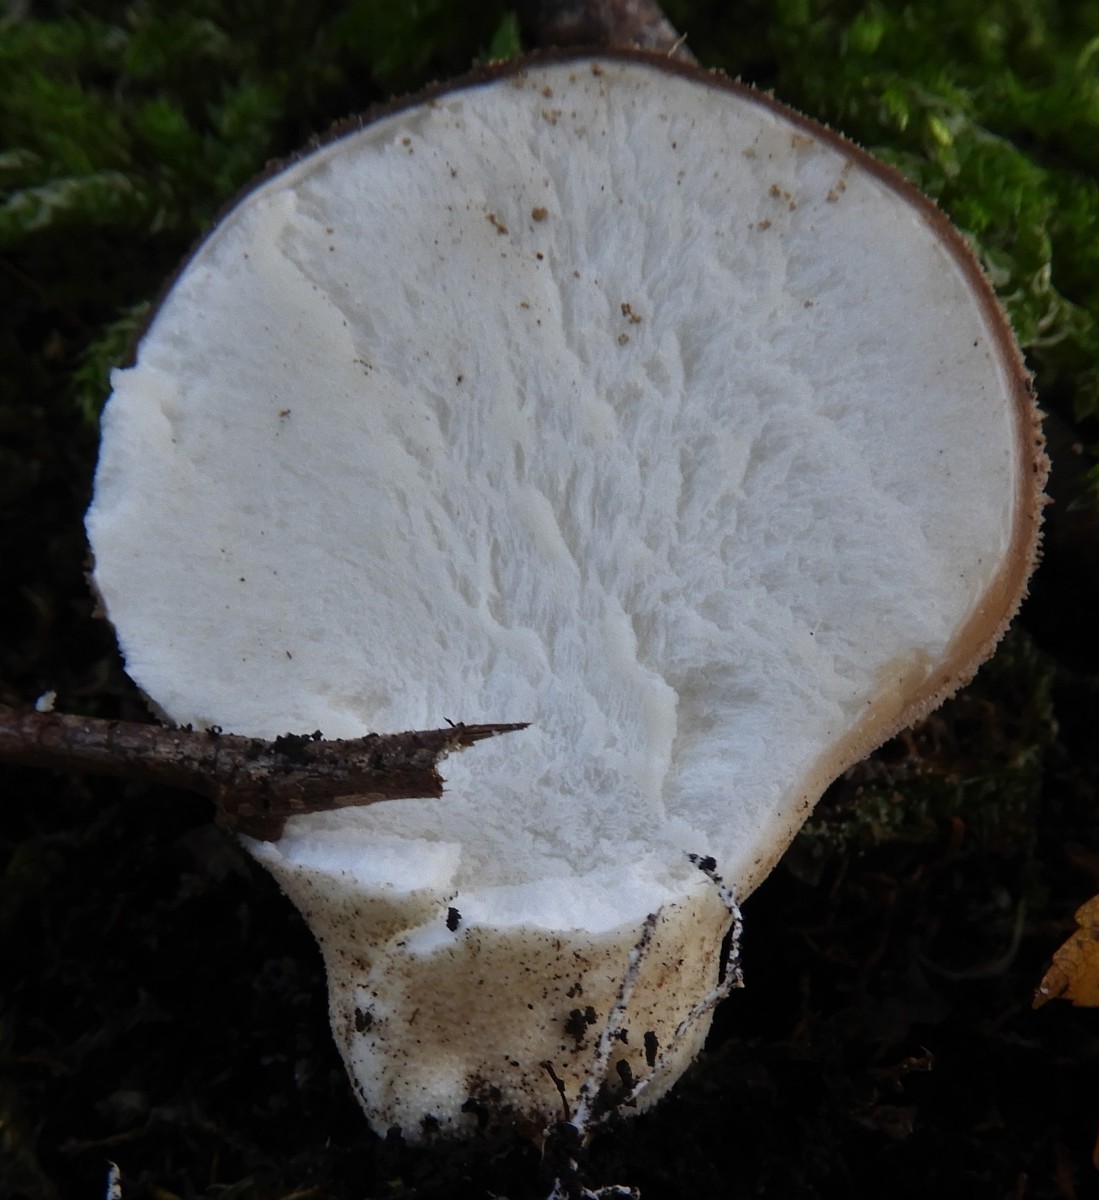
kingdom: Fungi
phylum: Basidiomycota
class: Agaricomycetes
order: Agaricales
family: Lycoperdaceae
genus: Apioperdon
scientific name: Apioperdon pyriforme
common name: pære-støvbold
